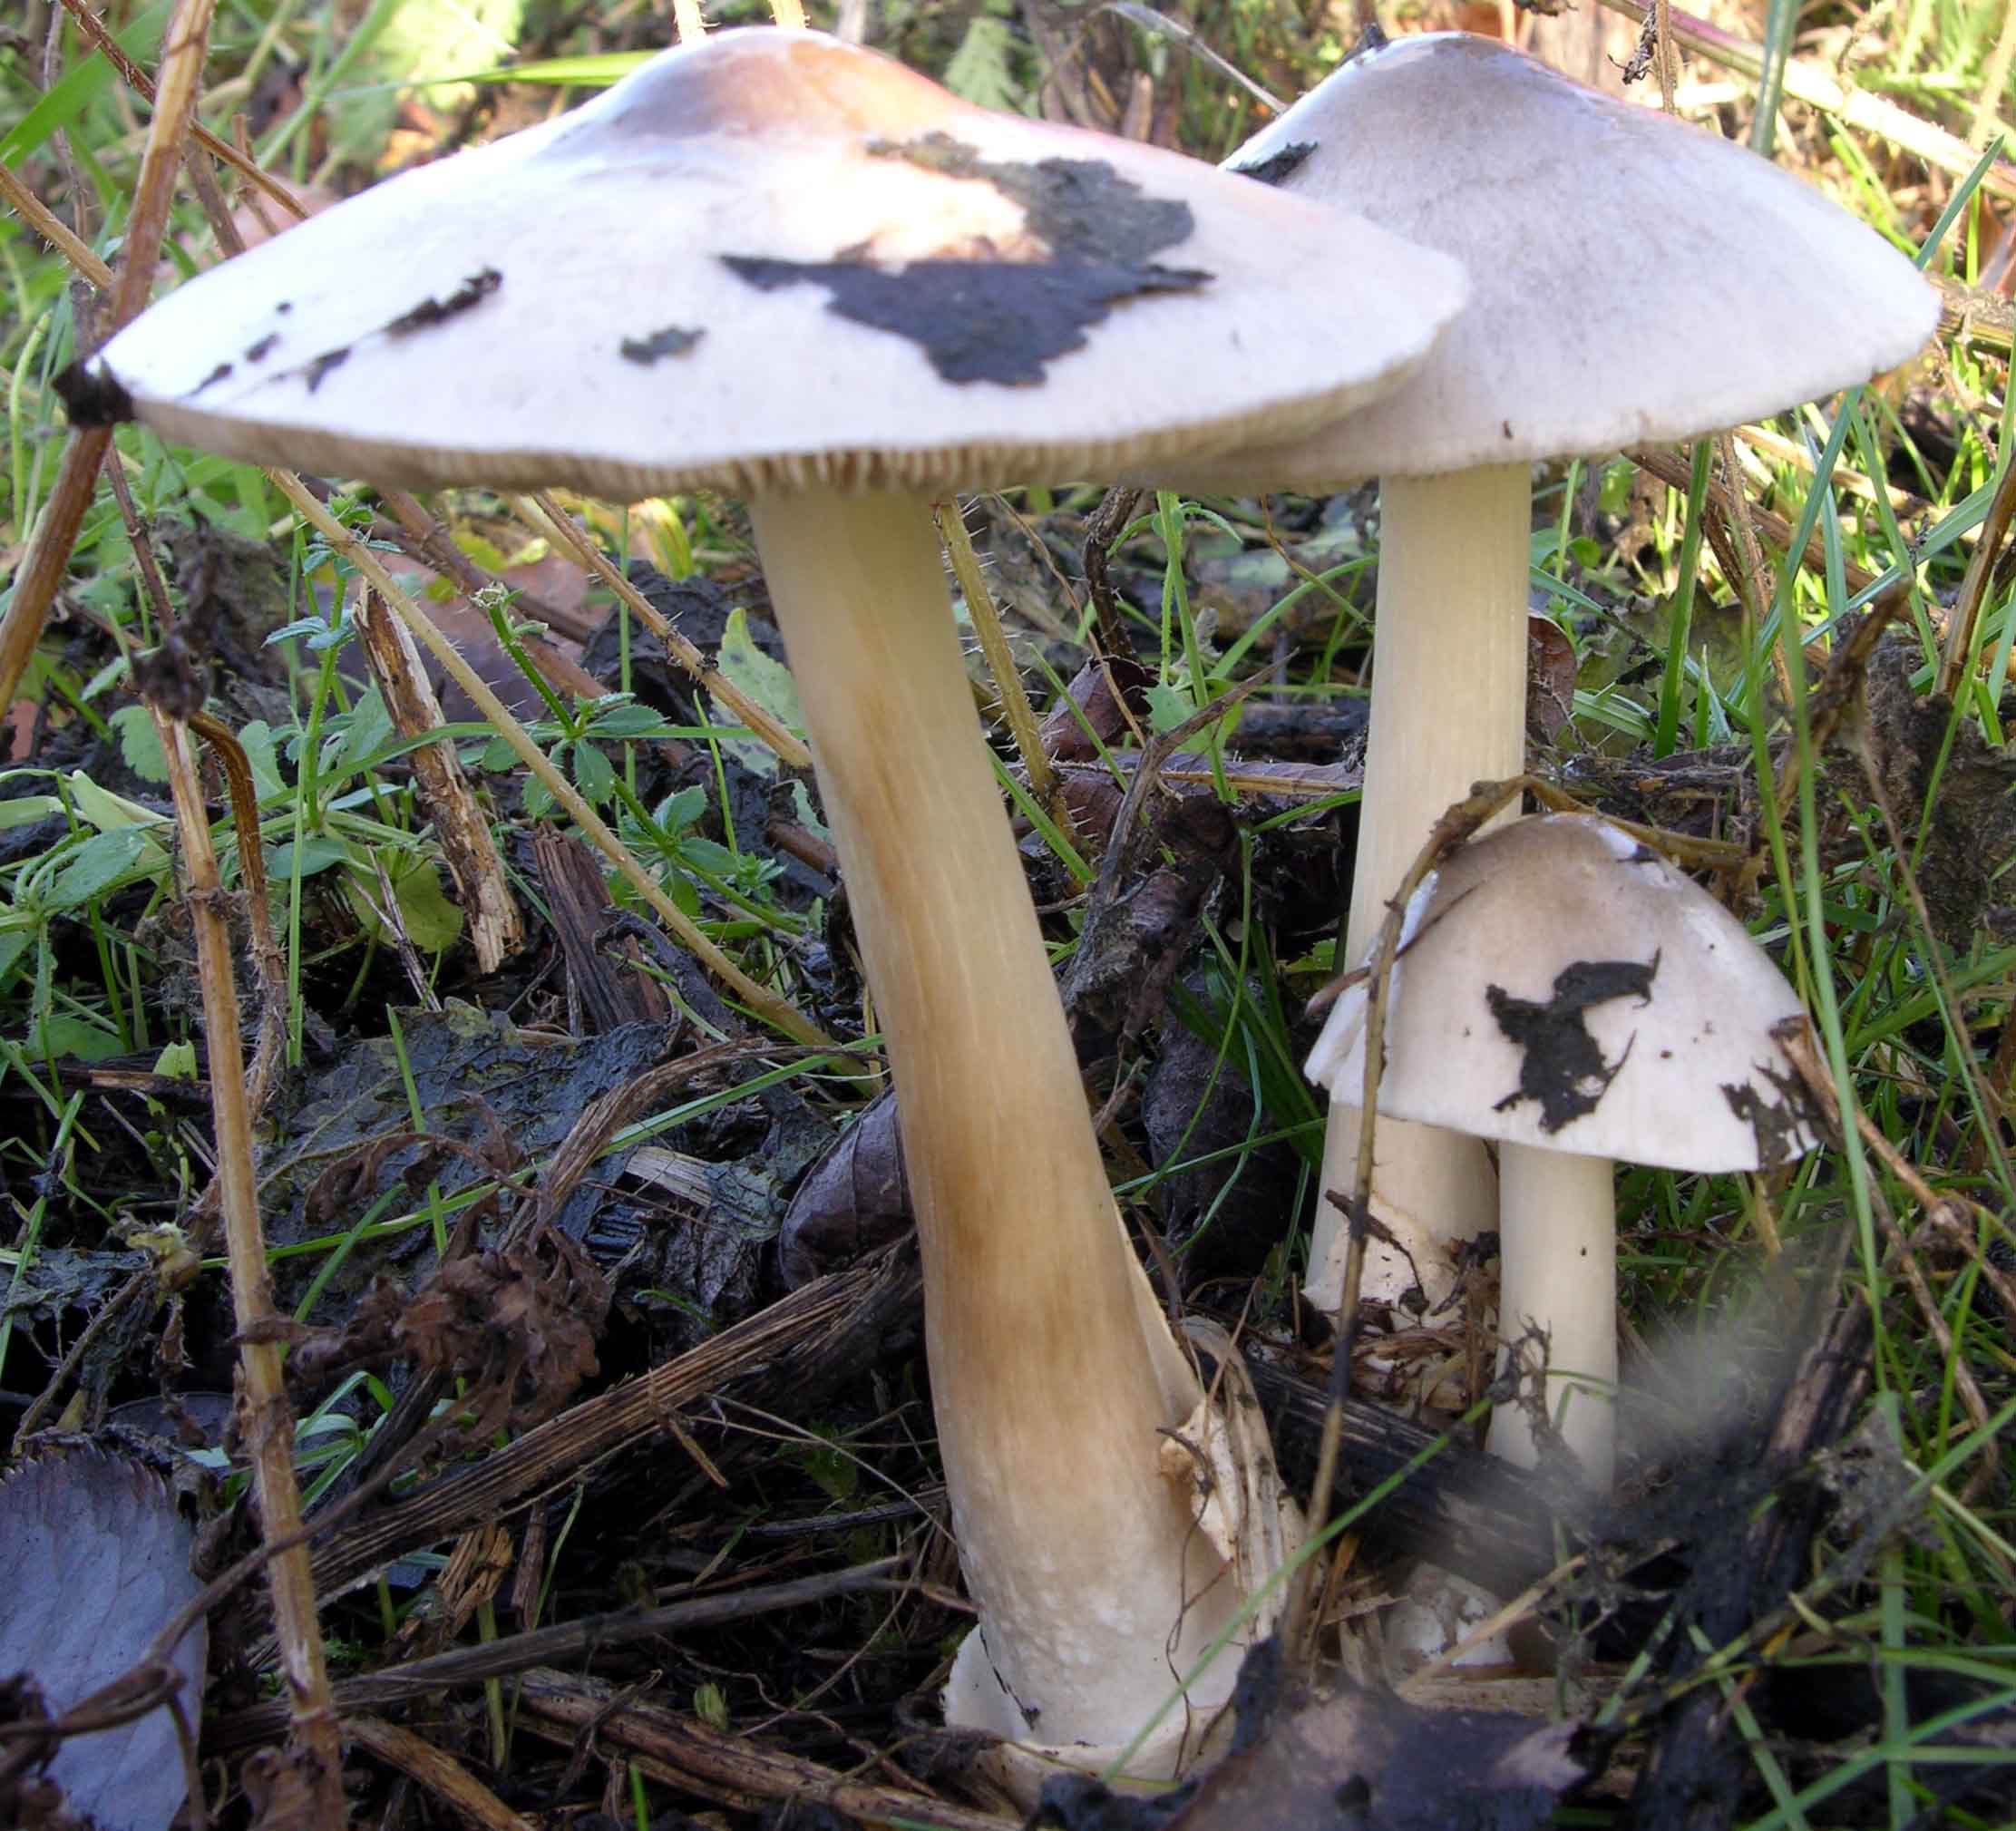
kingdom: Fungi
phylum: Basidiomycota
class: Agaricomycetes
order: Agaricales
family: Pluteaceae
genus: Volvopluteus
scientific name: Volvopluteus gloiocephalus
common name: høj posesvamp
